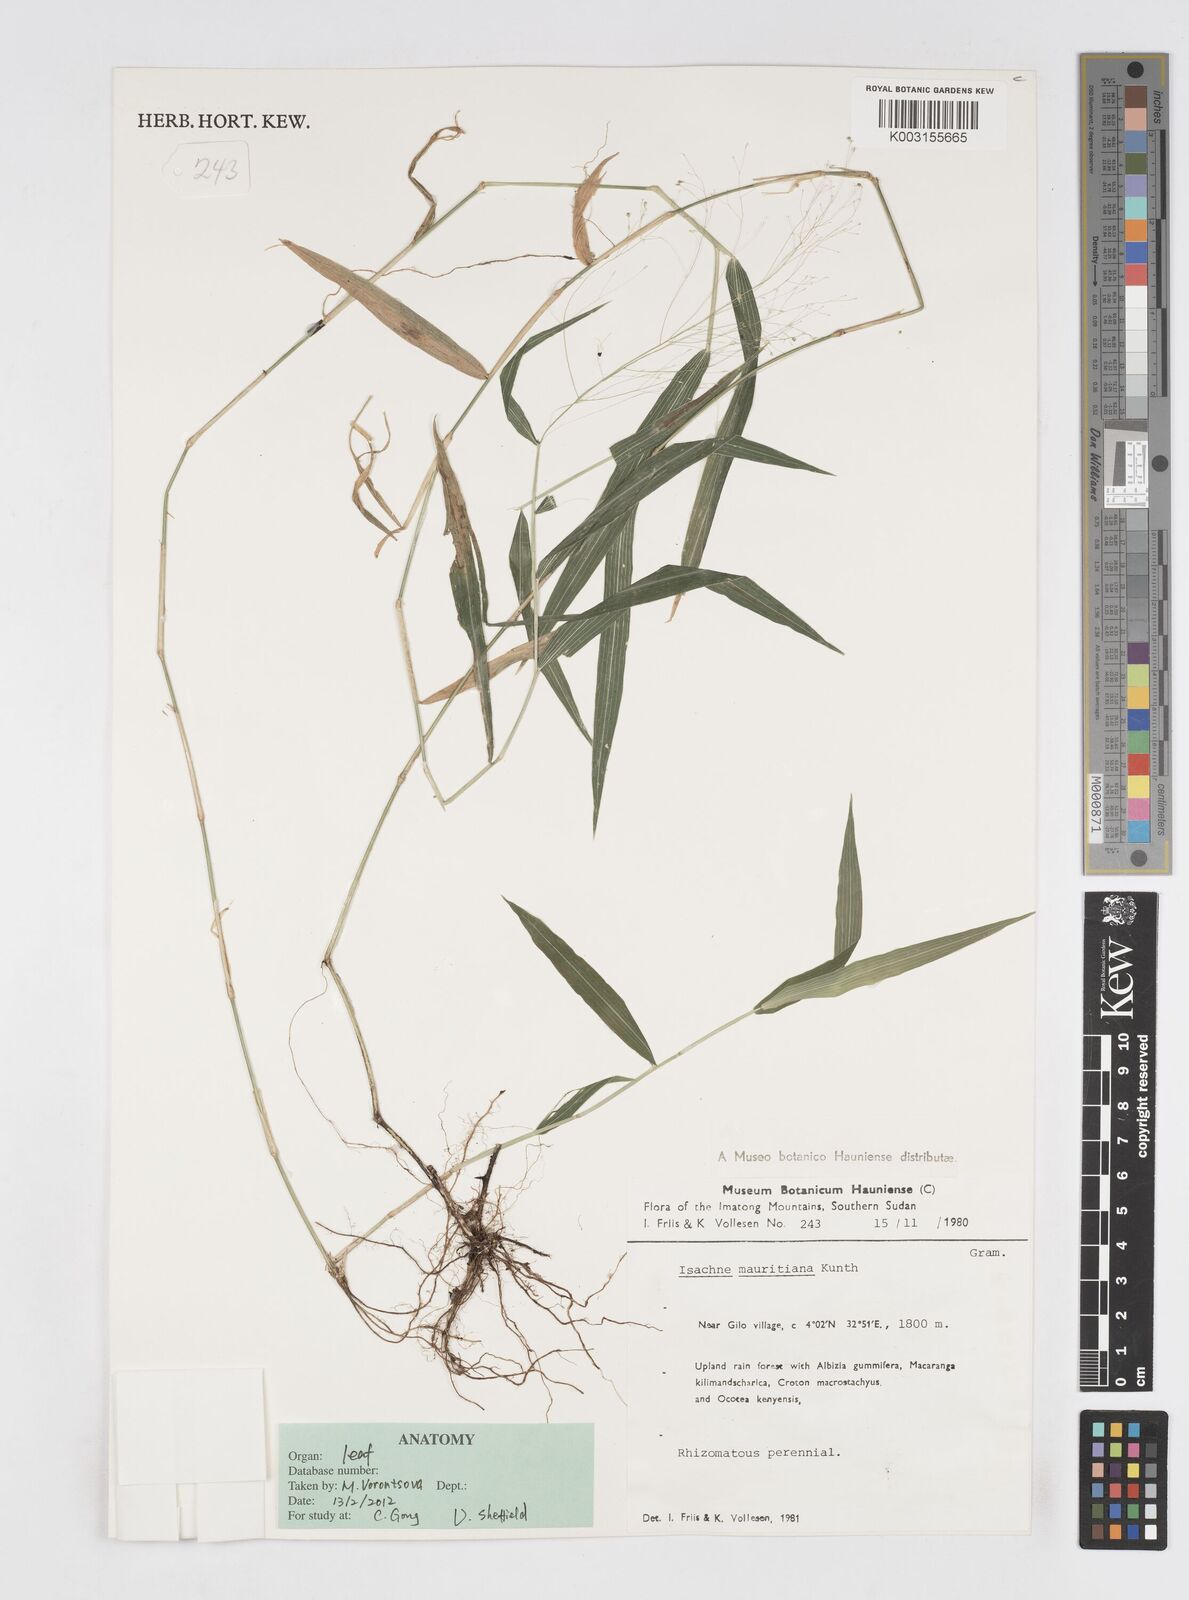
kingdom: Plantae
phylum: Tracheophyta
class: Liliopsida
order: Poales
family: Poaceae
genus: Isachne
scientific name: Isachne mauritiana
